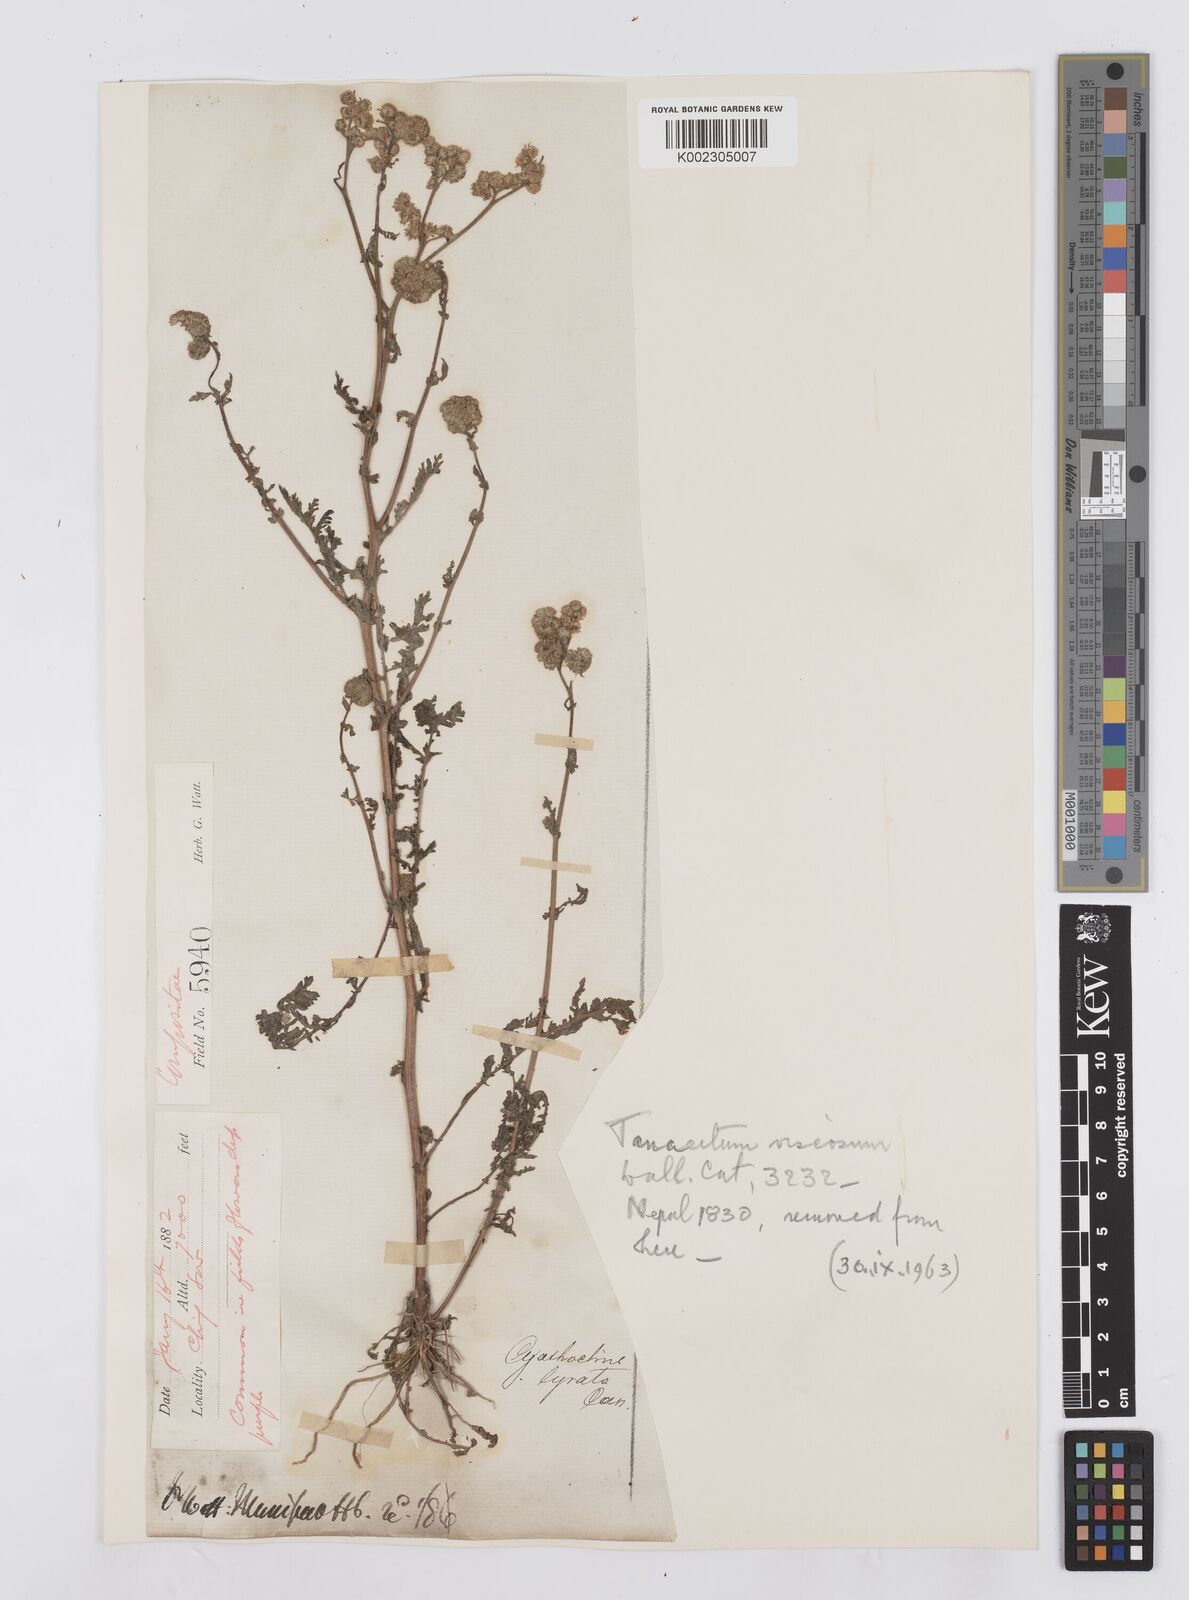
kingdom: Plantae
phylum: Tracheophyta
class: Magnoliopsida
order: Asterales
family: Asteraceae
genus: Cyathocline
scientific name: Cyathocline purpurea
